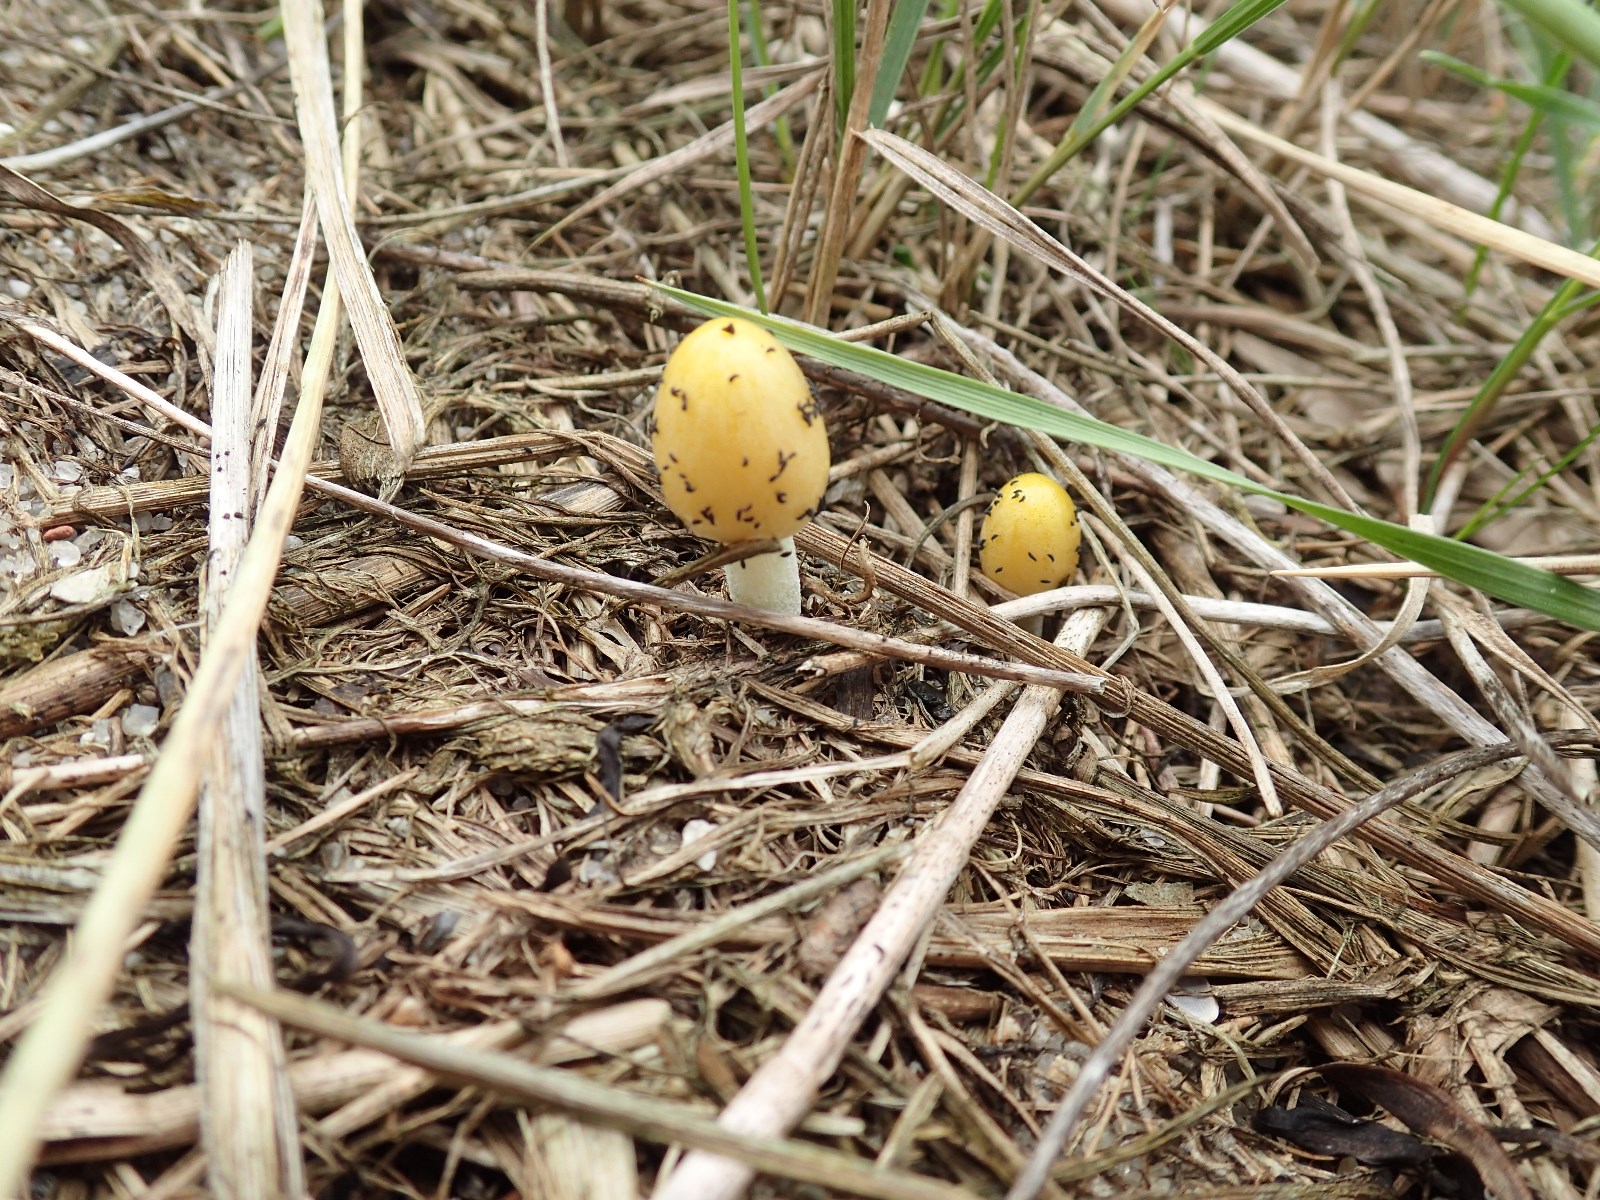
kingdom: Fungi
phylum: Basidiomycota
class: Agaricomycetes
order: Agaricales
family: Bolbitiaceae
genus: Bolbitius
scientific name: Bolbitius titubans
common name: almindelig gulhat
